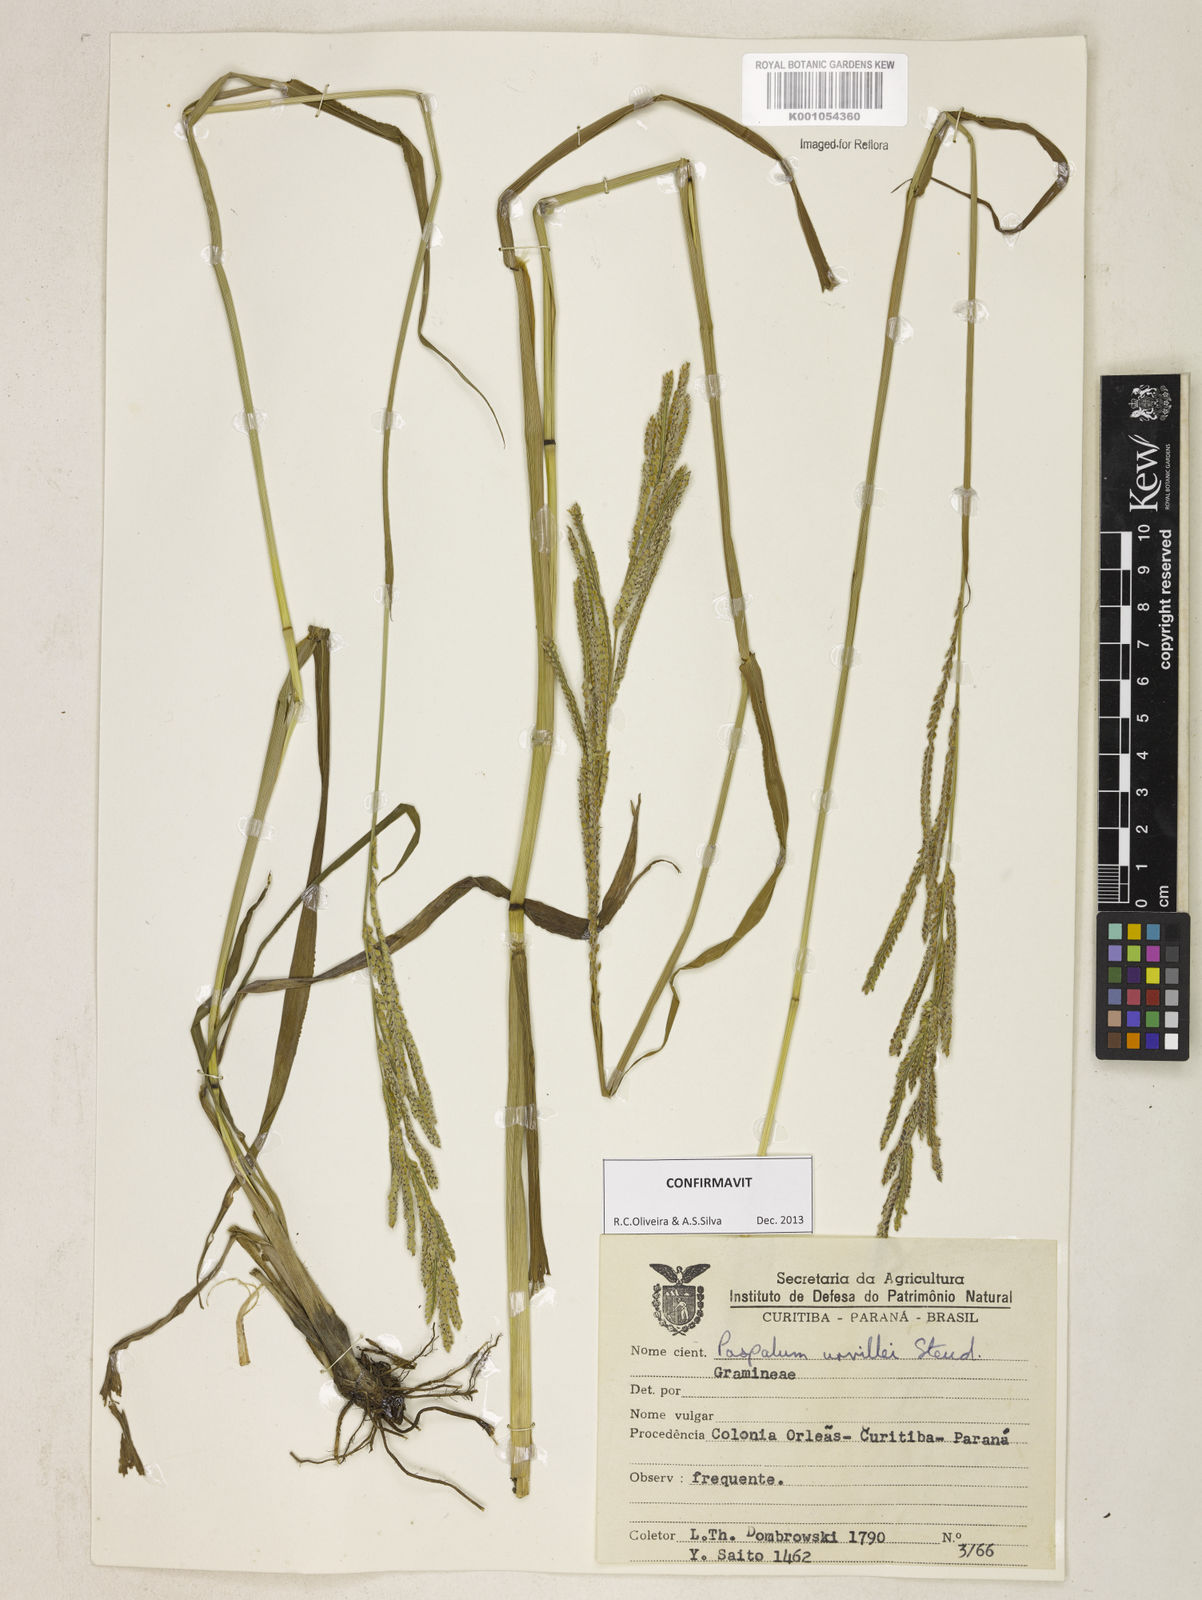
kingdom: Plantae
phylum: Tracheophyta
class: Liliopsida
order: Poales
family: Poaceae
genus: Paspalum
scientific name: Paspalum urvillei
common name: Vasey's grass
